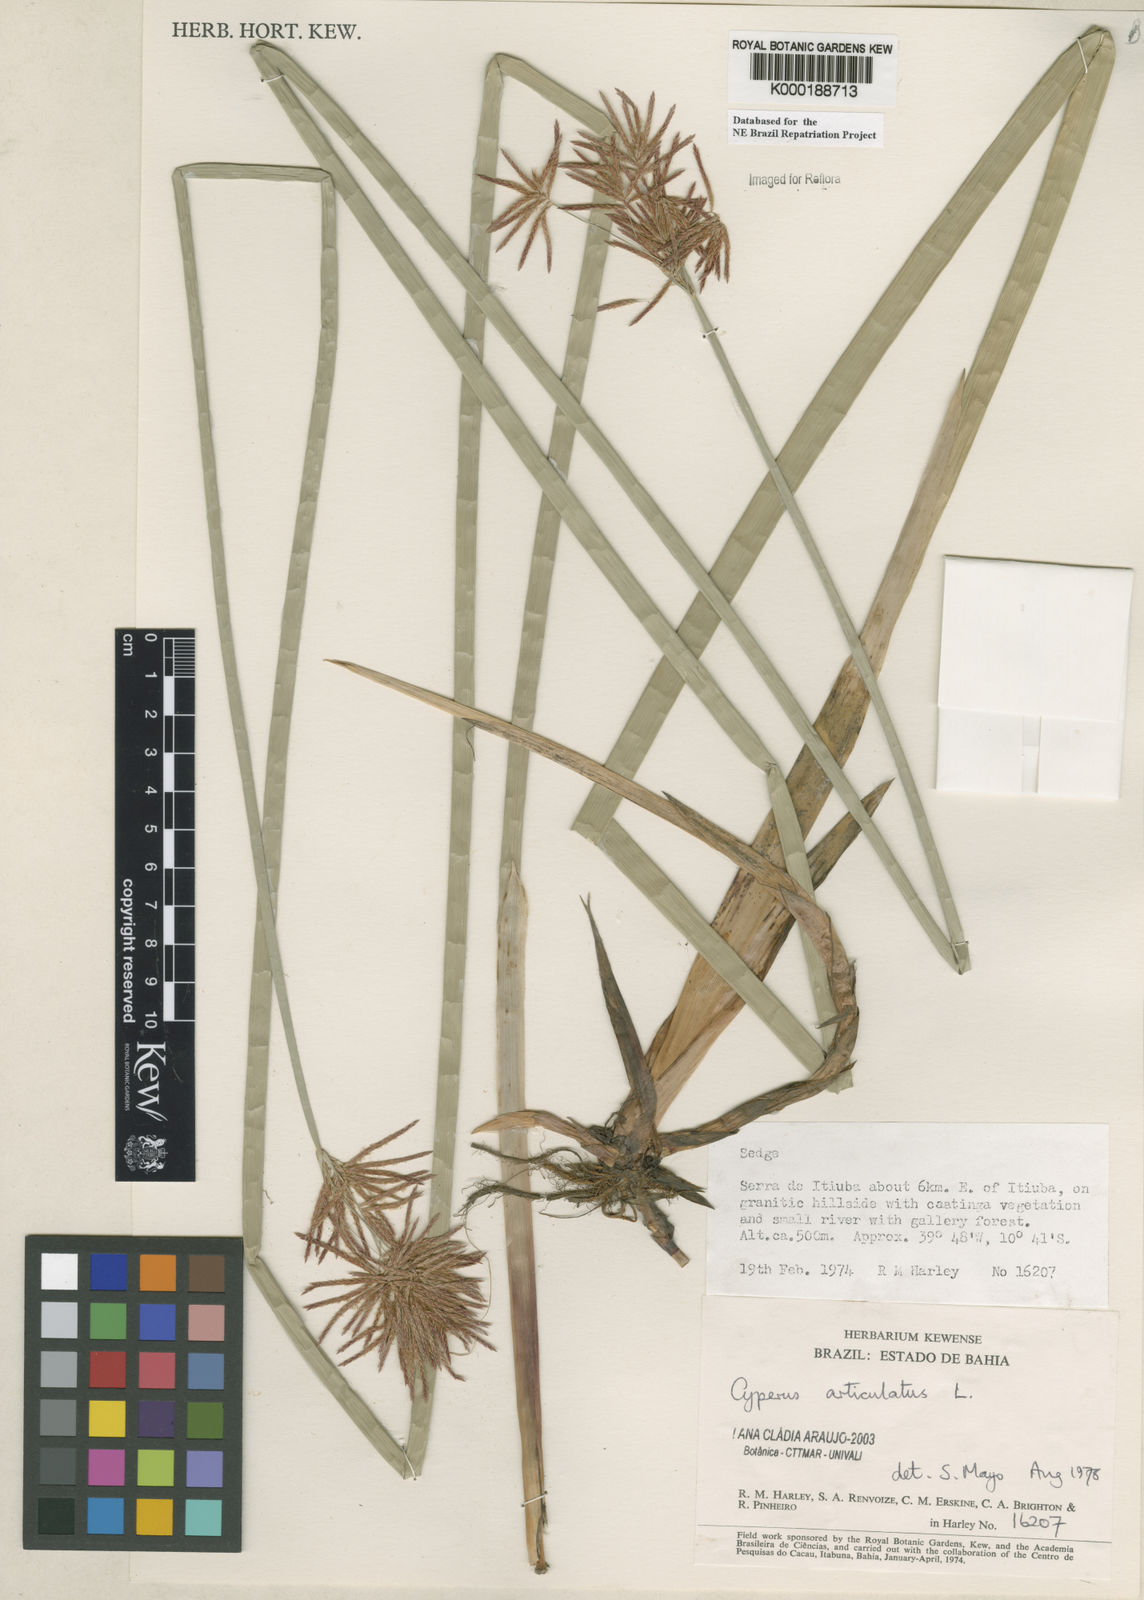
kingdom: Plantae
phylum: Tracheophyta
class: Liliopsida
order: Poales
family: Cyperaceae
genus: Cyperus
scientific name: Cyperus articulatus
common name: Jointed flatsedge
